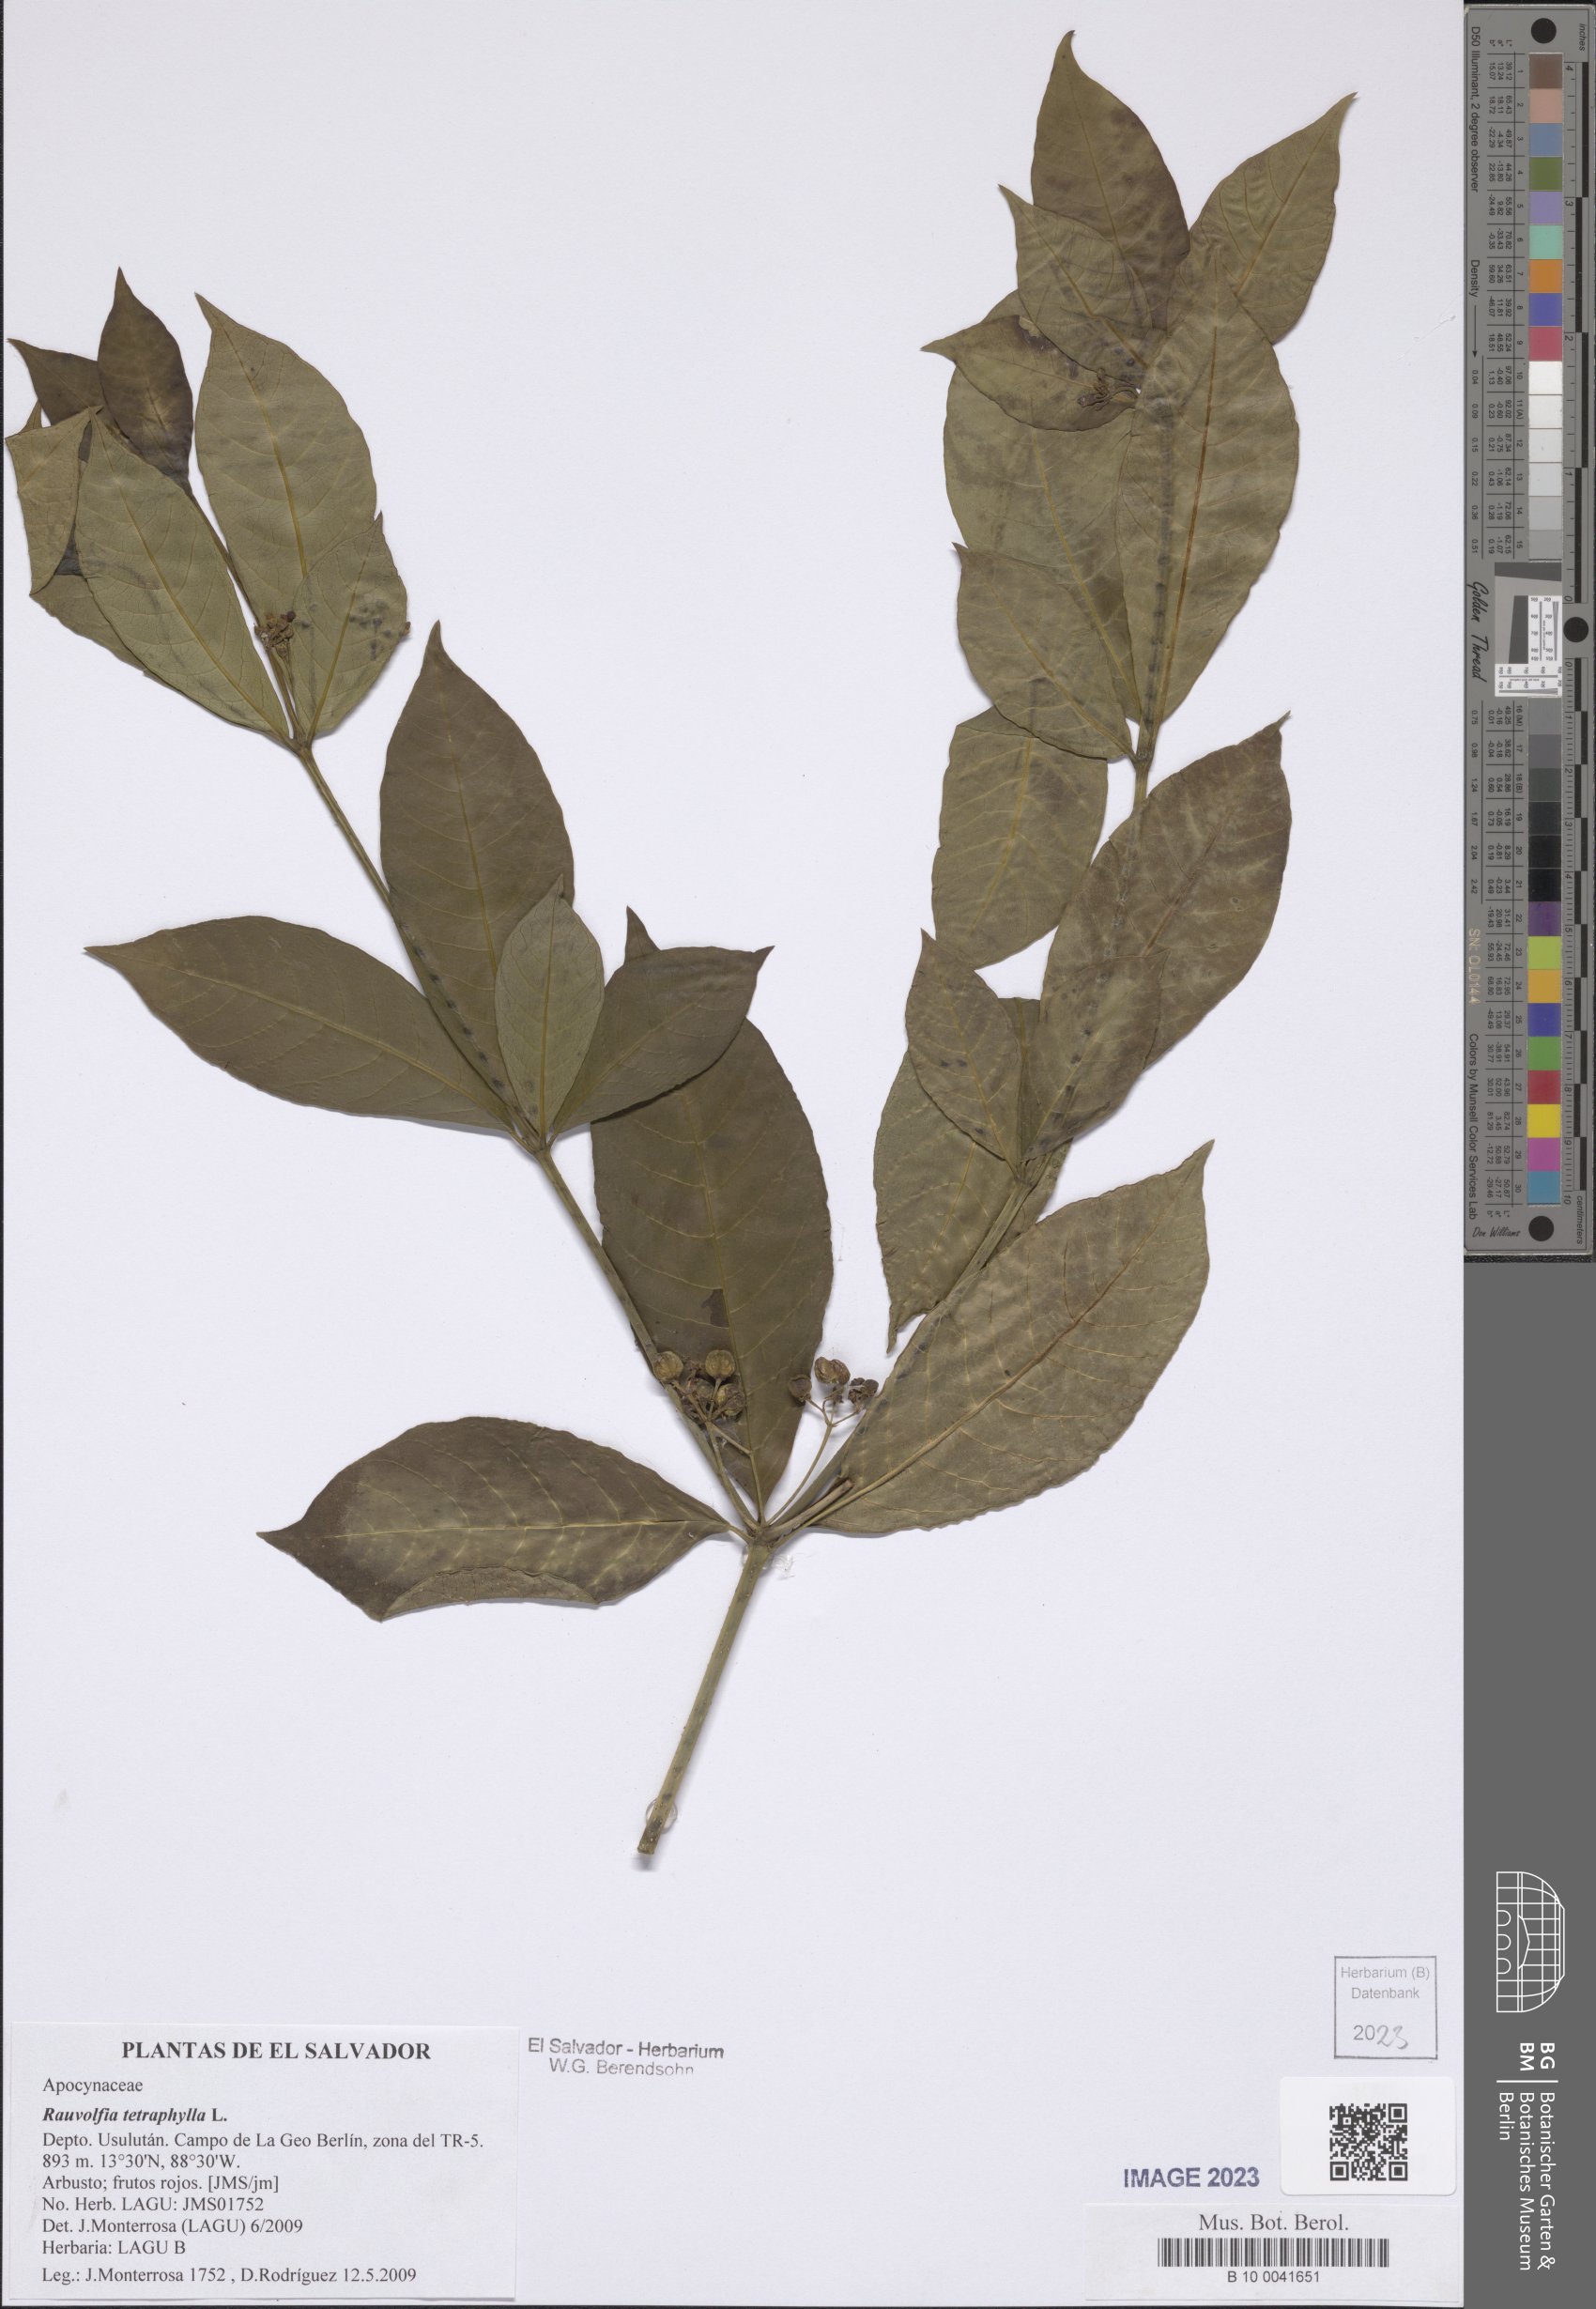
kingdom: Plantae
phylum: Tracheophyta
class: Magnoliopsida
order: Gentianales
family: Apocynaceae
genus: Rauvolfia
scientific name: Rauvolfia tetraphylla
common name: Four-leaf devil-pepper
